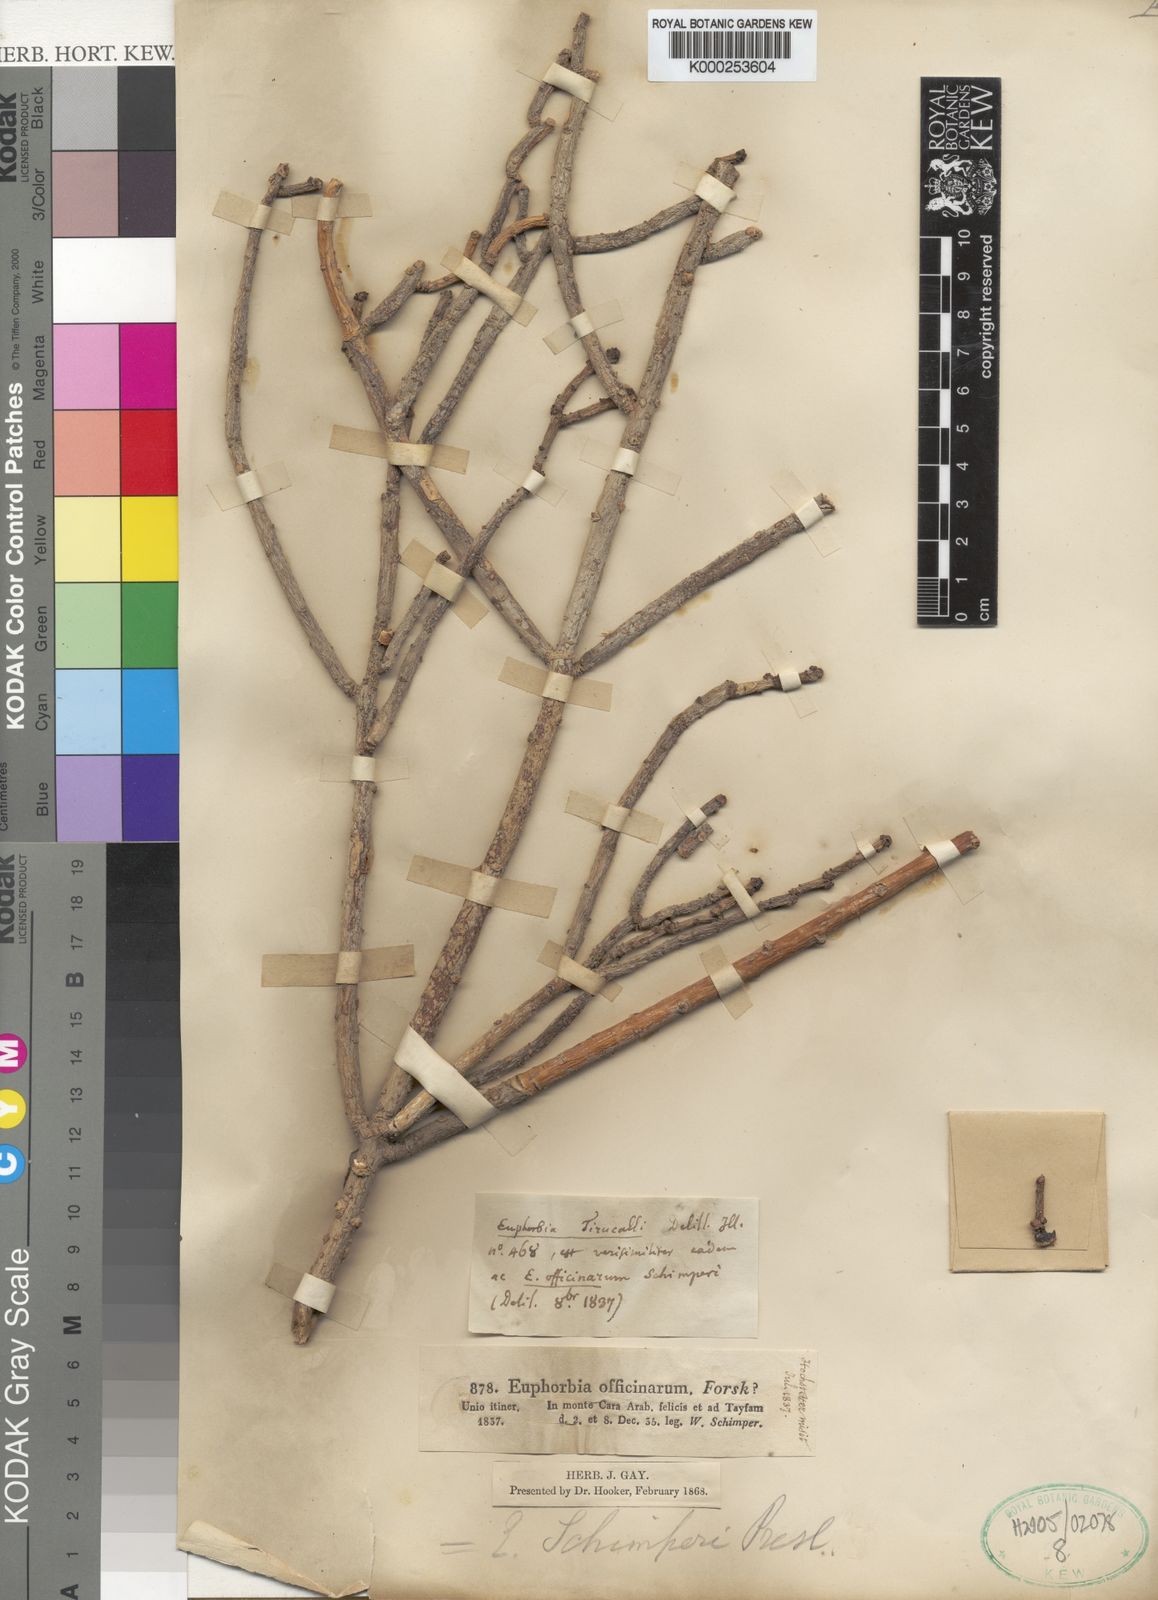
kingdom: Plantae
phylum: Tracheophyta
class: Magnoliopsida
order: Malpighiales
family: Euphorbiaceae
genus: Euphorbia
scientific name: Euphorbia schimperi
